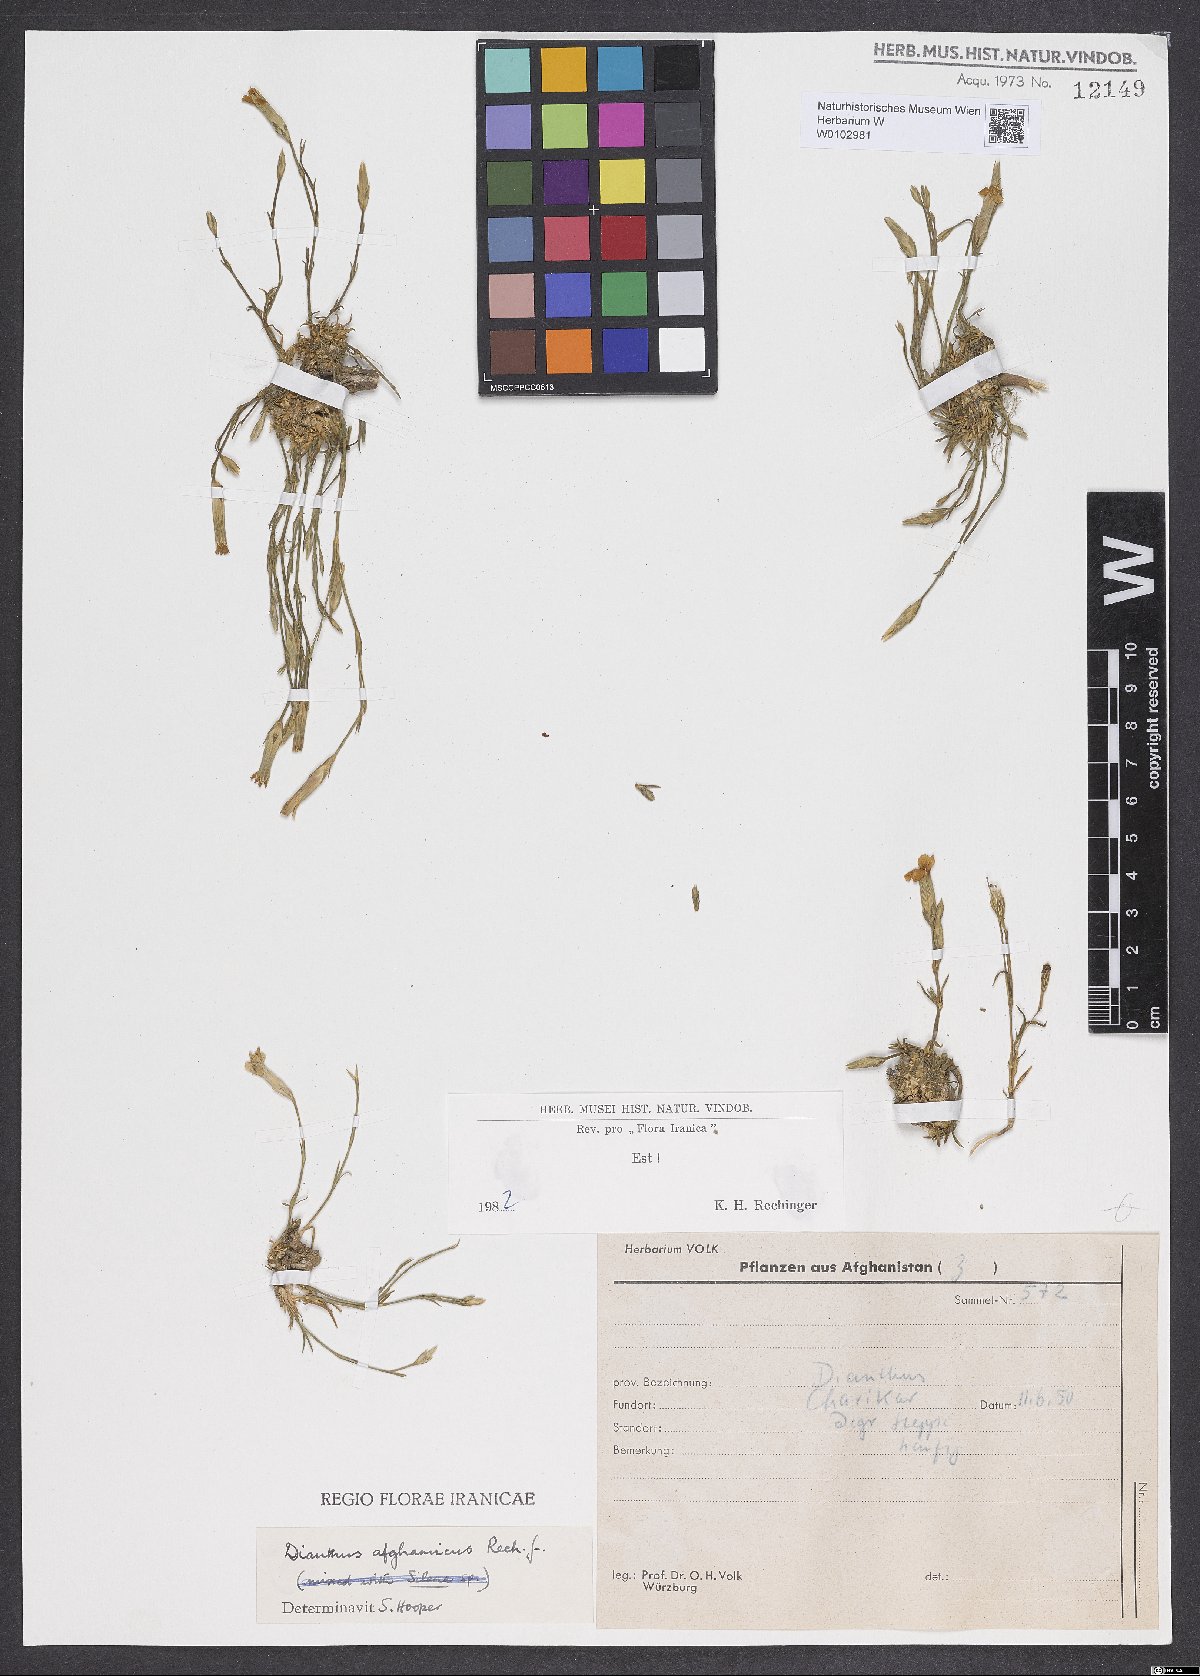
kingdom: Plantae
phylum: Tracheophyta
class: Magnoliopsida
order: Caryophyllales
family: Caryophyllaceae
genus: Dianthus
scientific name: Dianthus afghanicus
